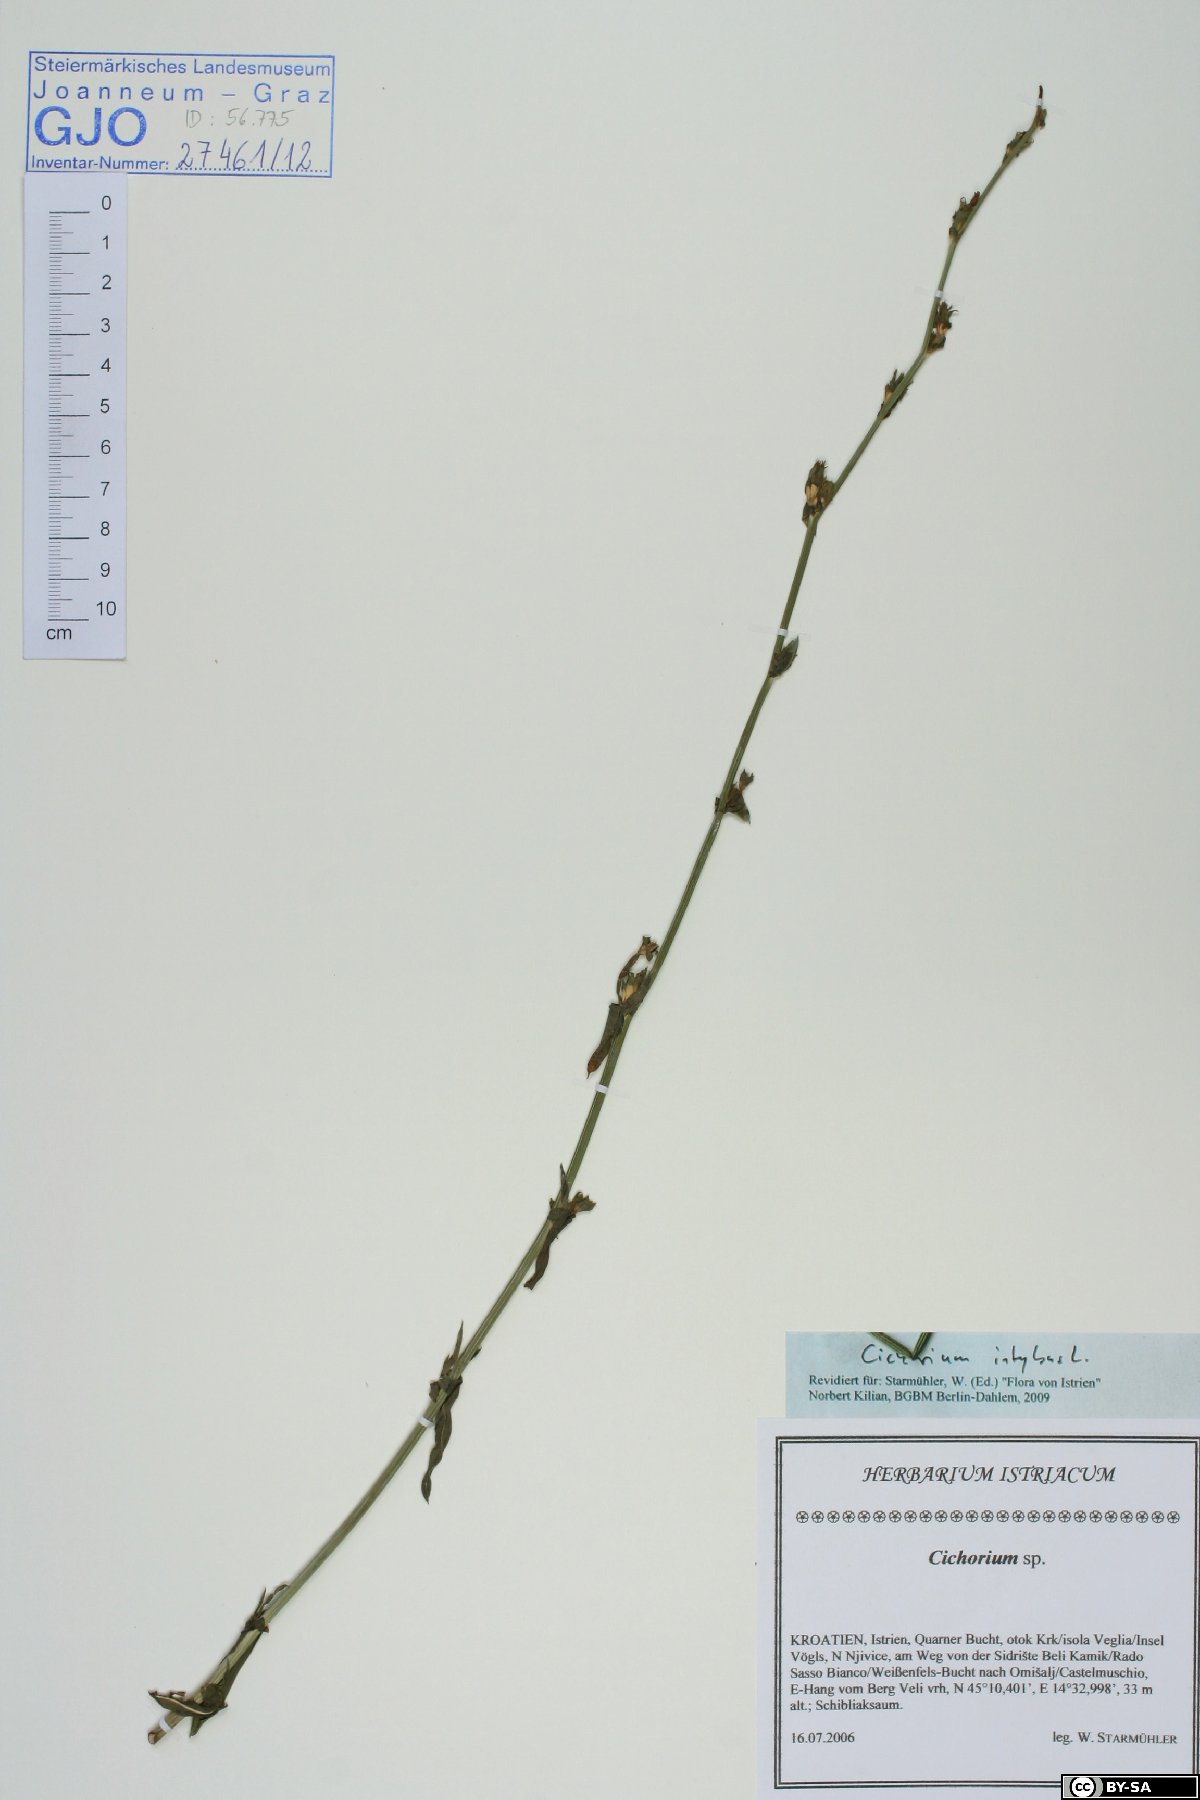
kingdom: Plantae
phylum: Tracheophyta
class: Magnoliopsida
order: Asterales
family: Asteraceae
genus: Cichorium
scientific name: Cichorium intybus
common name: Chicory
